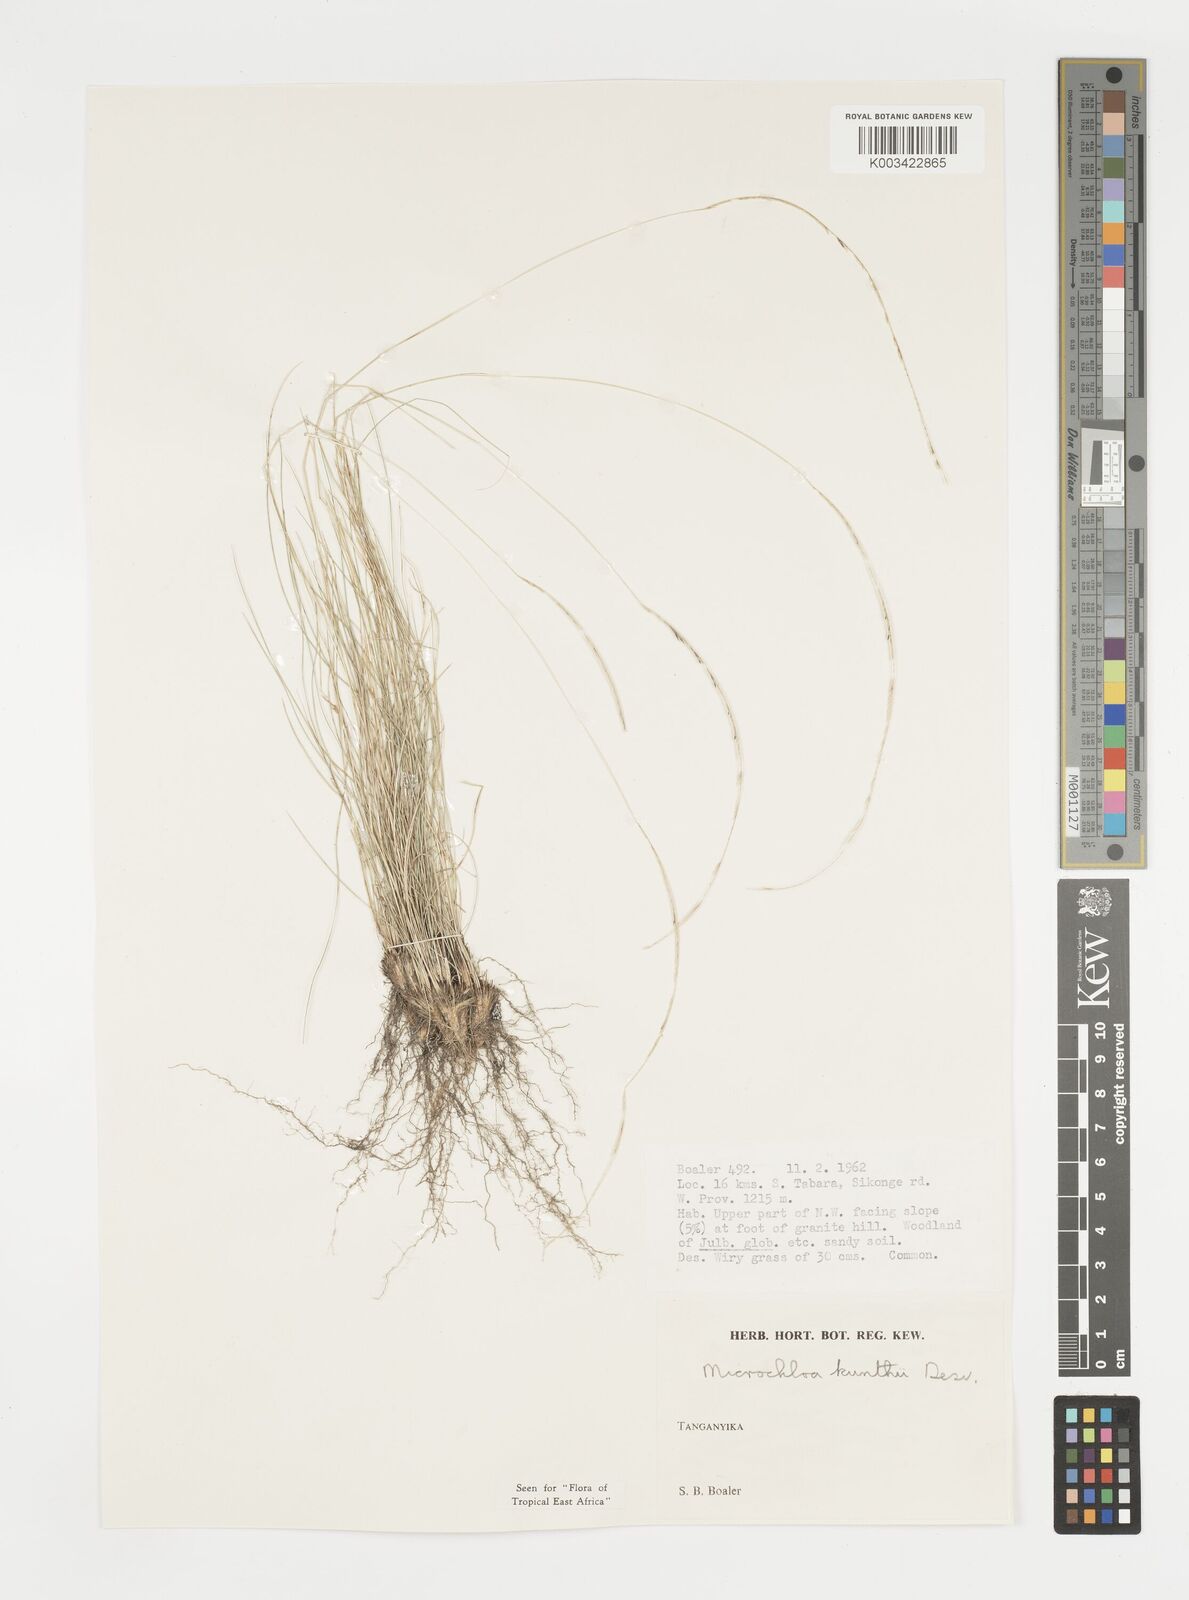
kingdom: Plantae
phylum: Tracheophyta
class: Liliopsida
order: Poales
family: Poaceae
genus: Microchloa
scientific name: Microchloa kunthii
